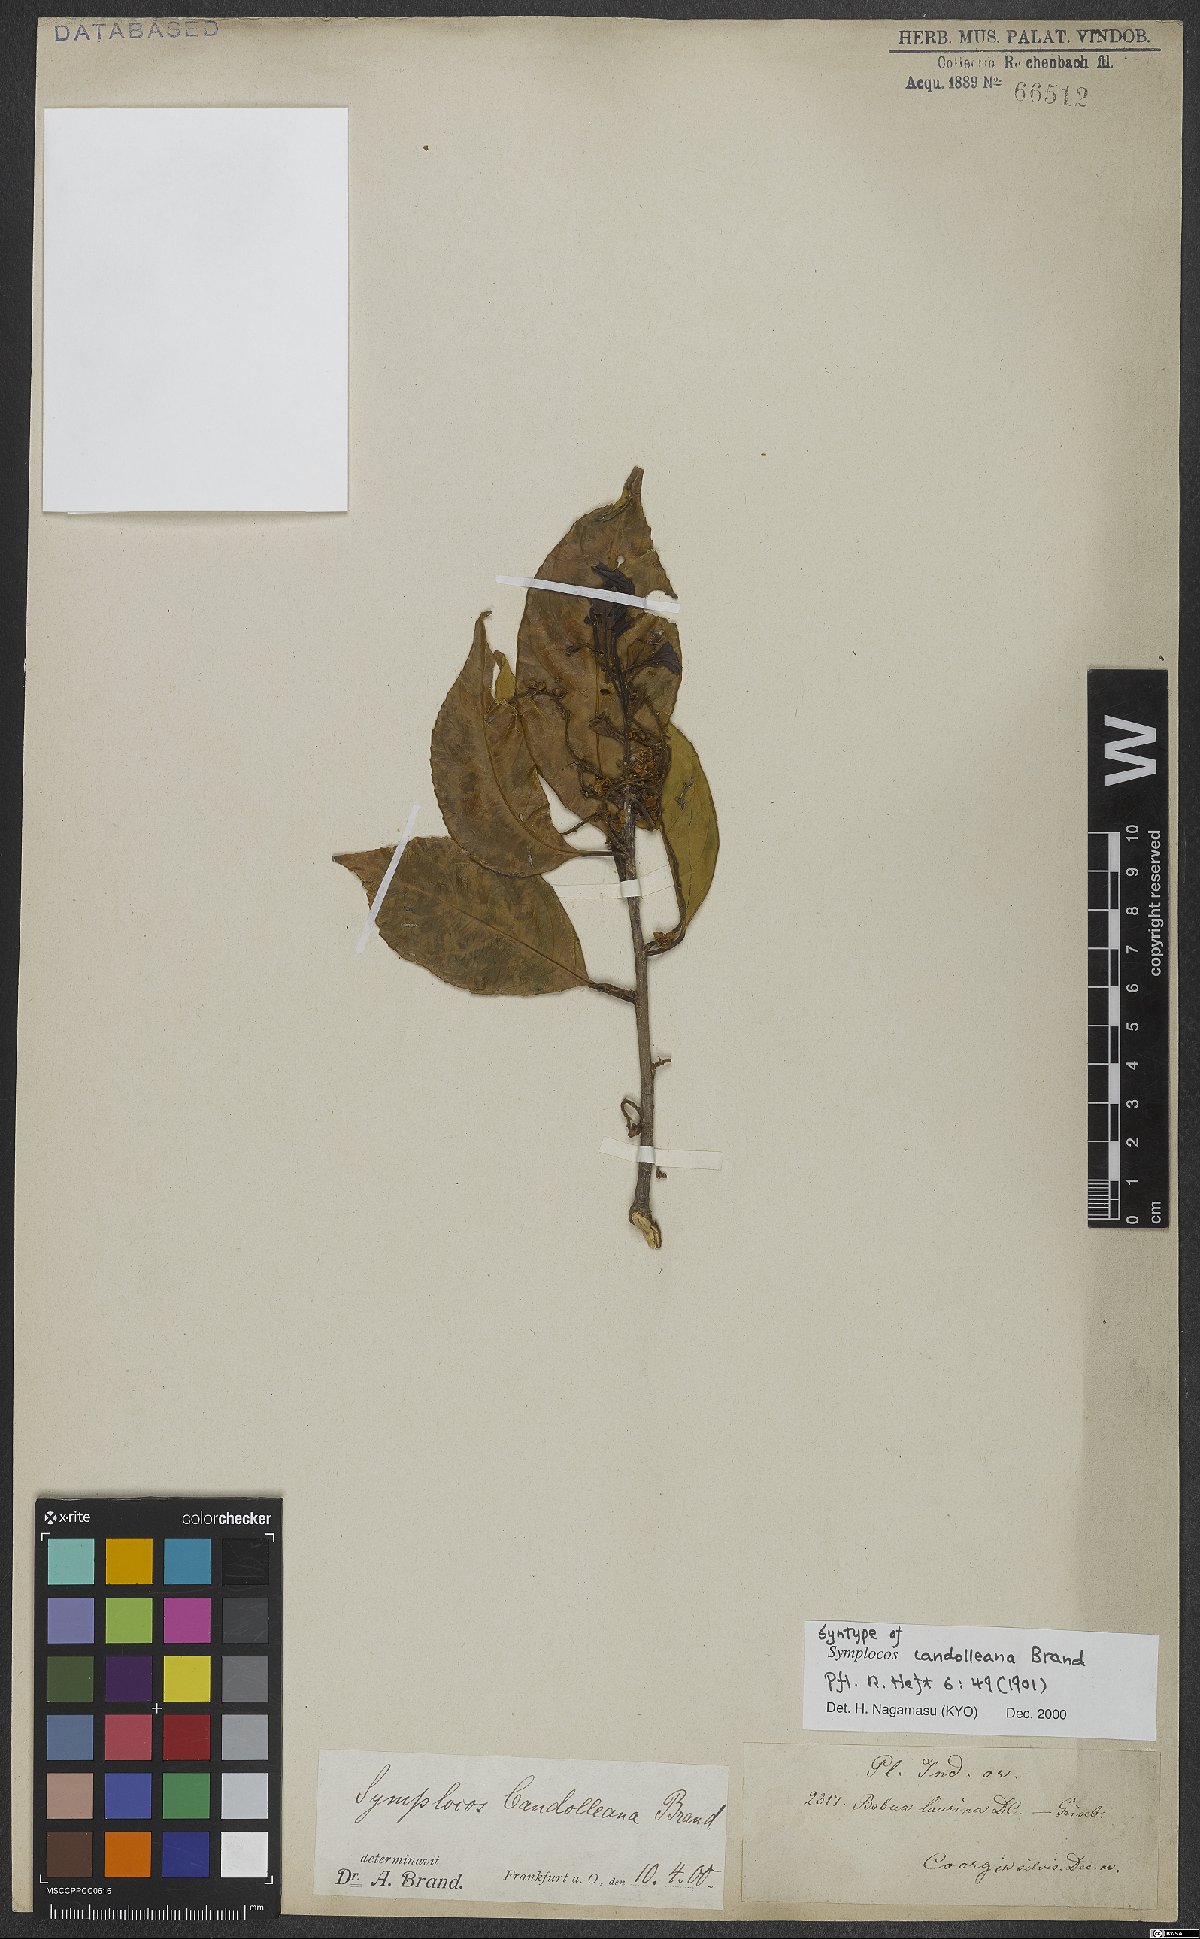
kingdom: Plantae
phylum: Tracheophyta
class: Magnoliopsida
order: Ericales
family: Symplocaceae
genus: Symplocos
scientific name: Symplocos ramosissima
